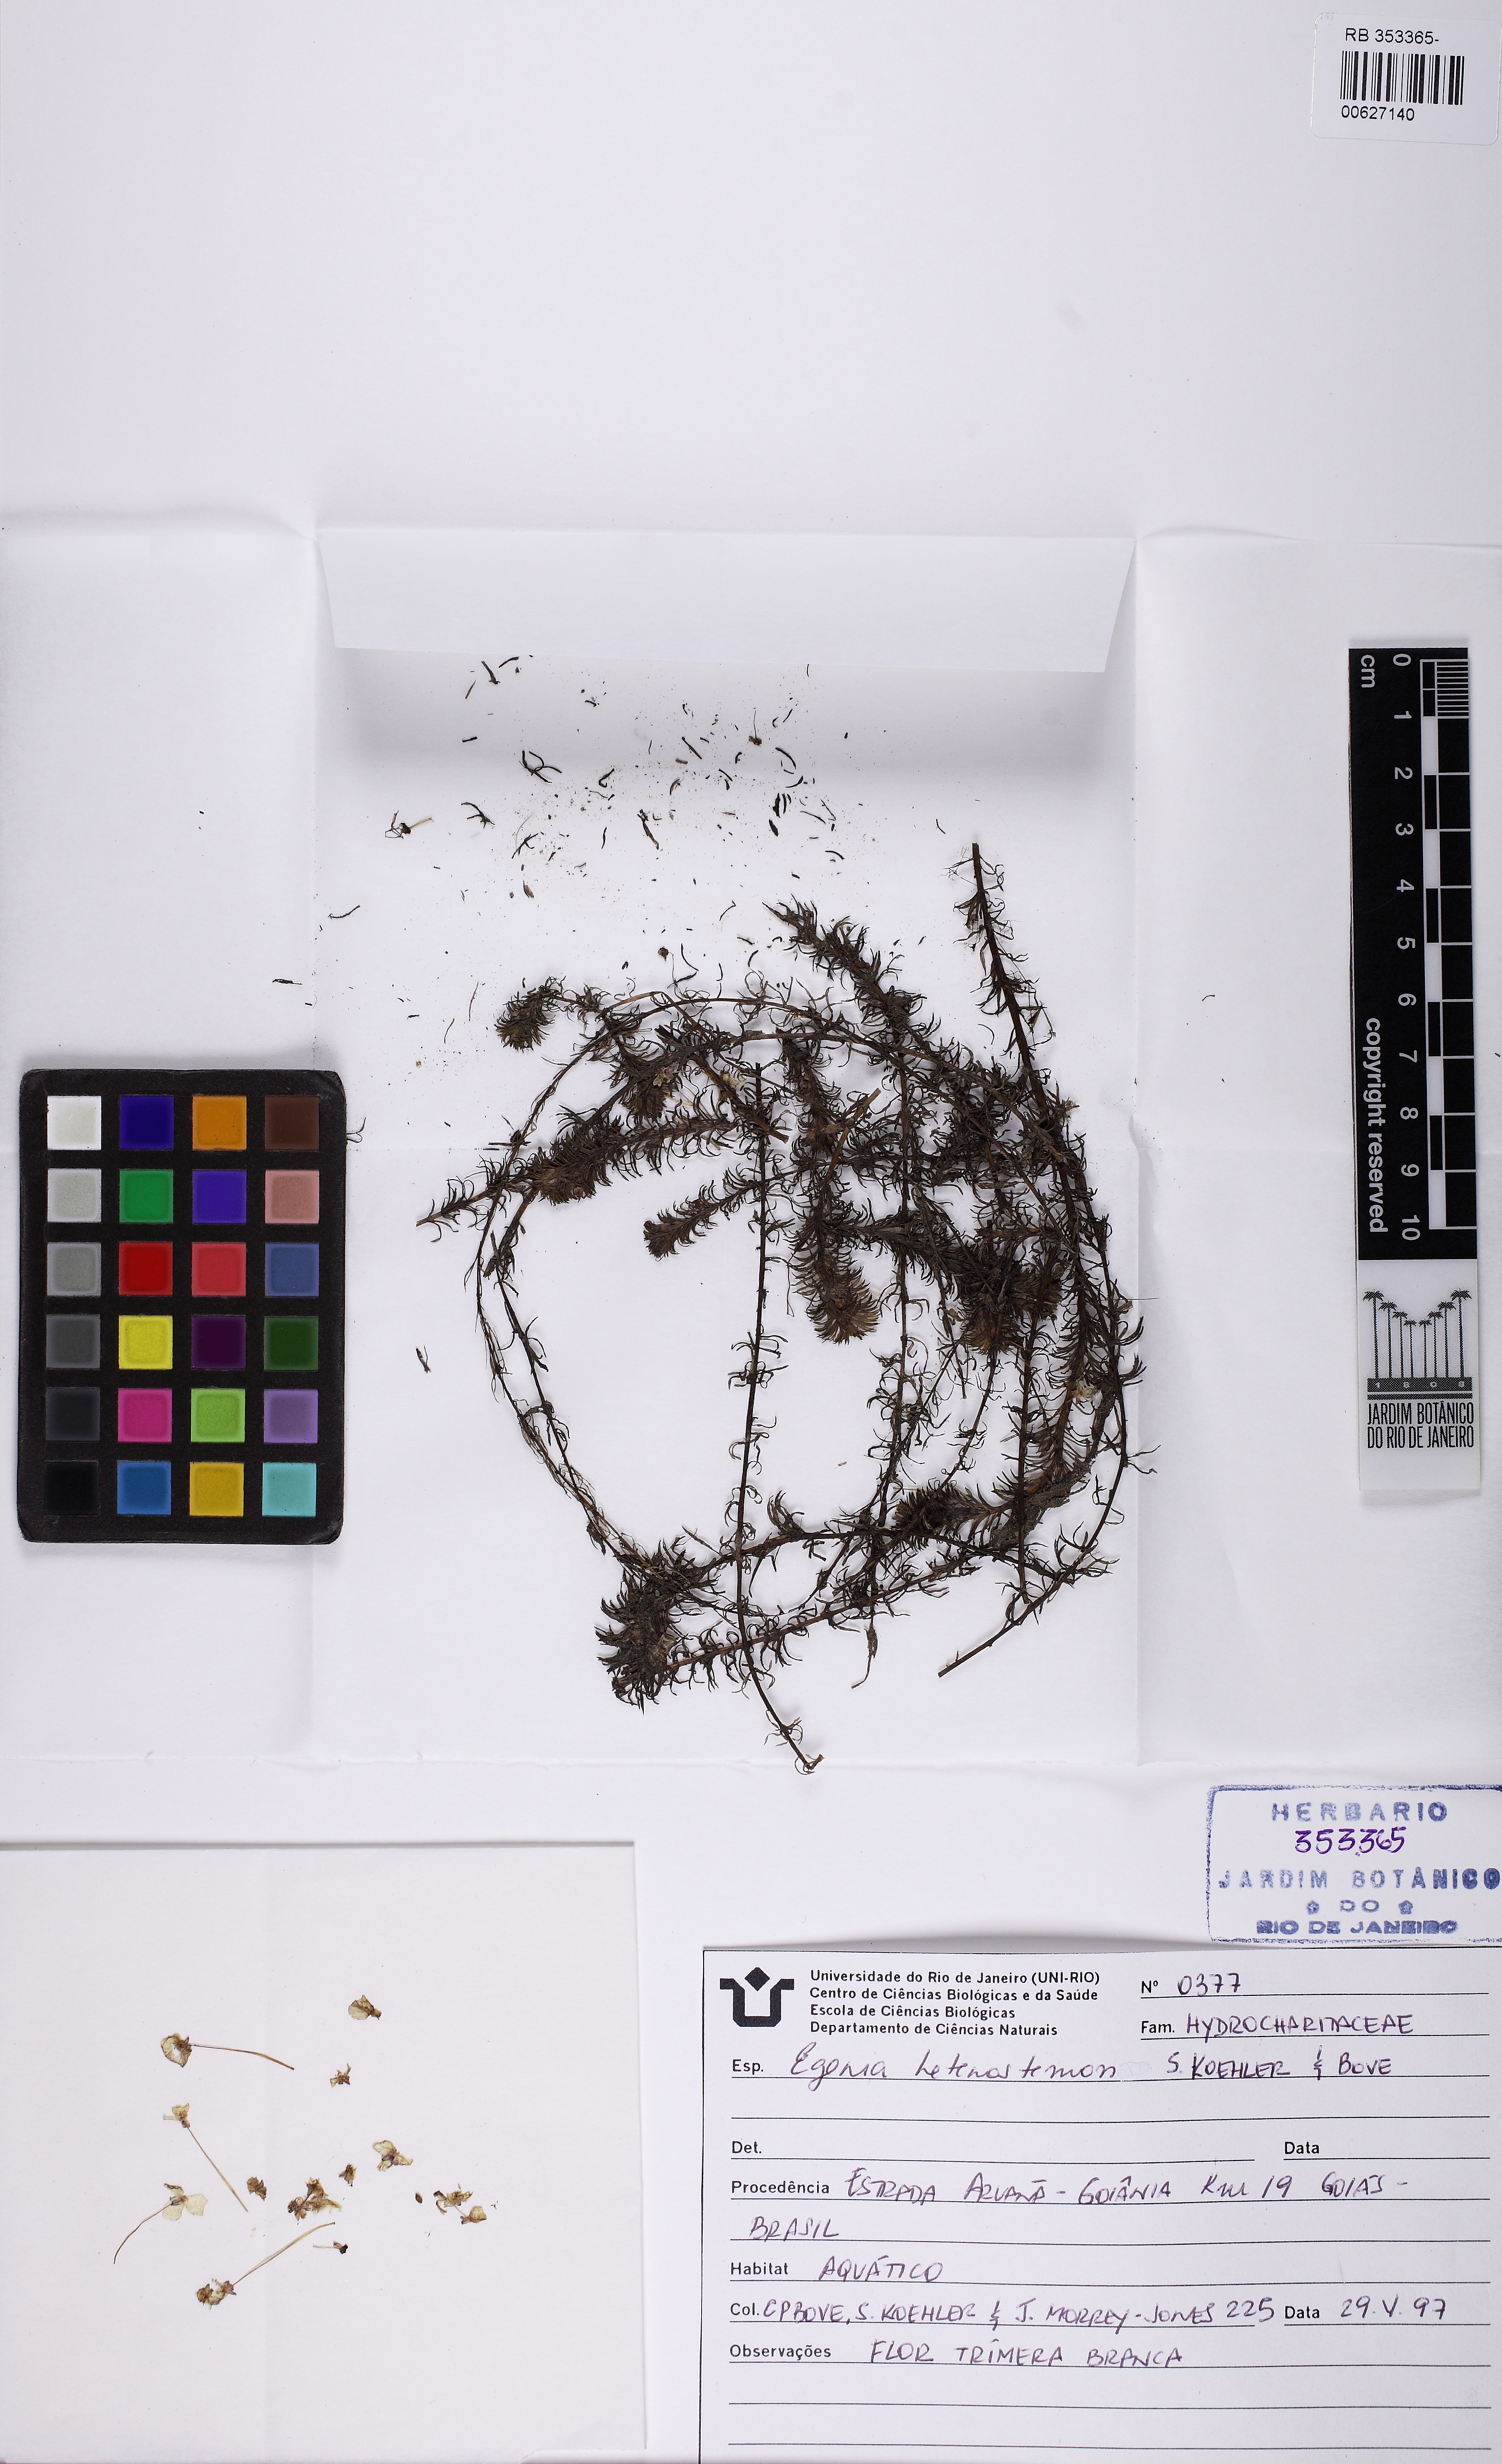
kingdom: Plantae
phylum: Tracheophyta
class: Liliopsida
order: Alismatales
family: Hydrocharitaceae
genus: Elodea
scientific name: Elodea heterostemon
